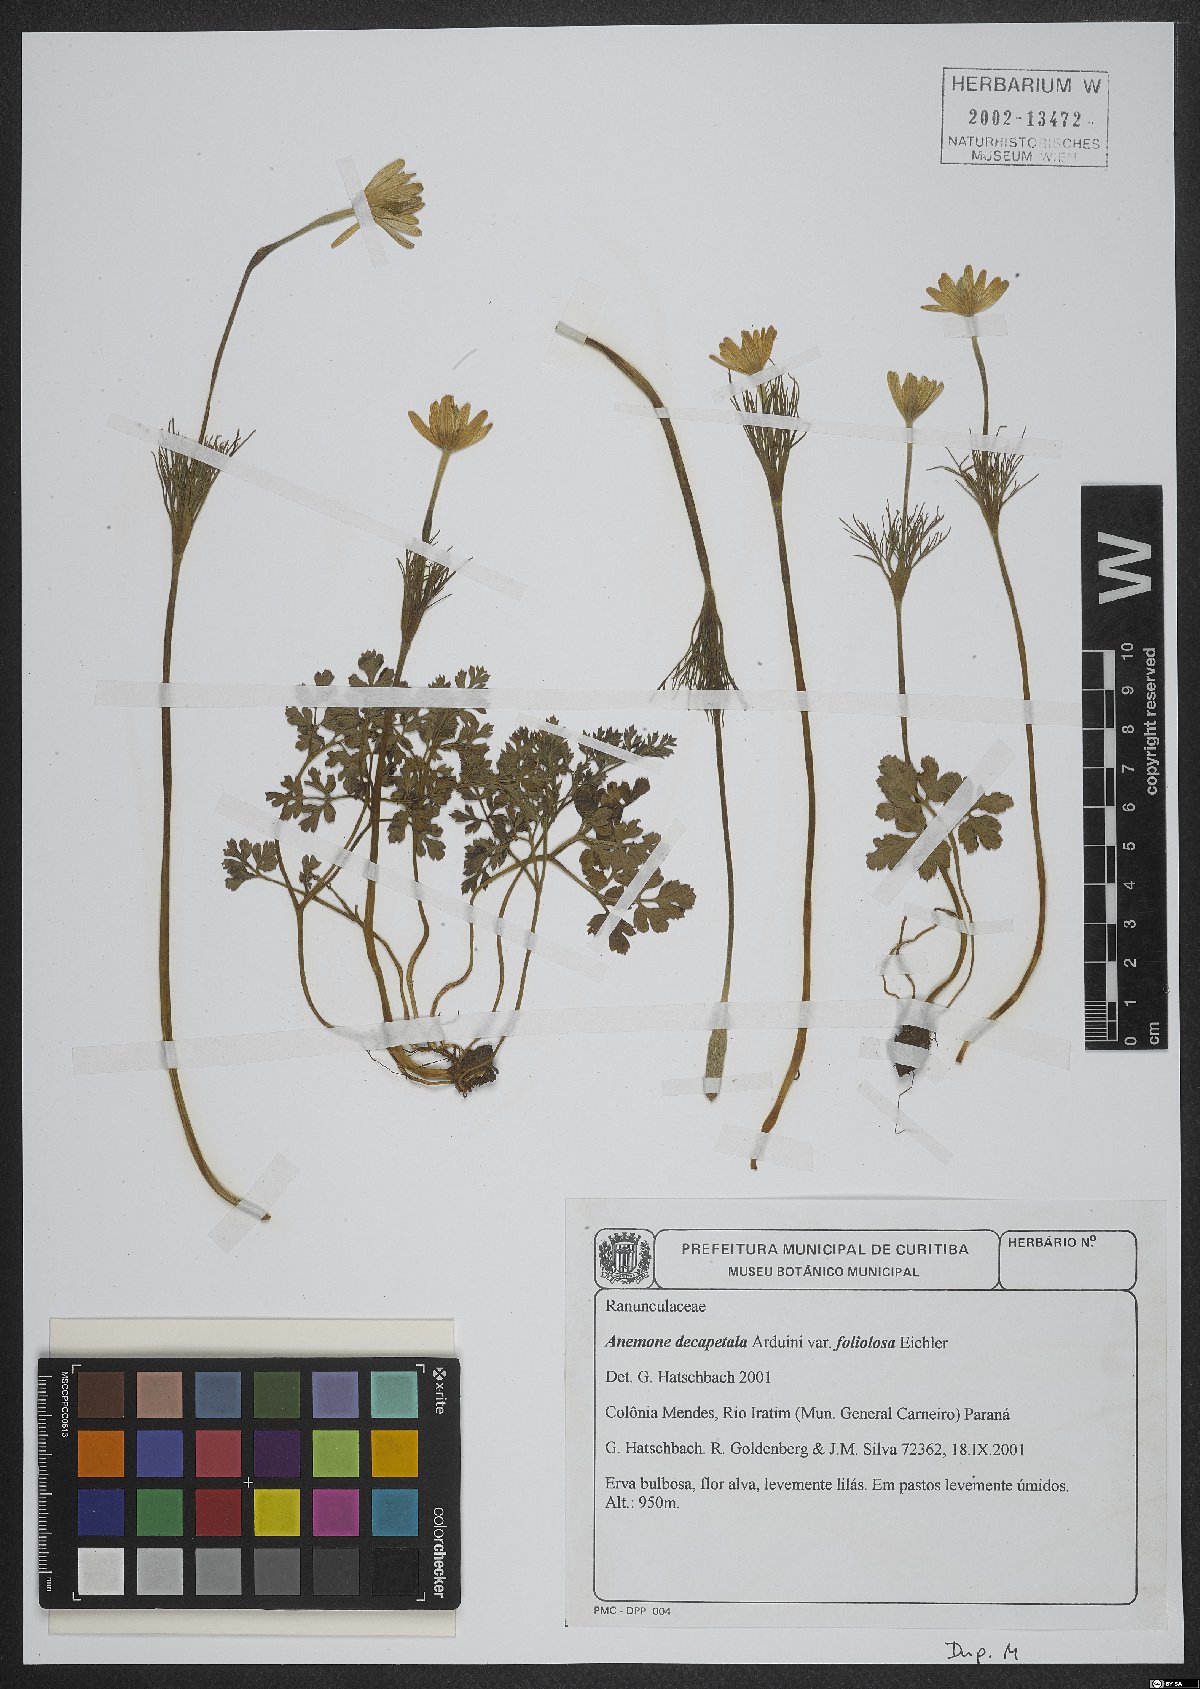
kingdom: Plantae
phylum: Tracheophyta
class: Magnoliopsida
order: Ranunculales
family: Ranunculaceae
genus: Anemone
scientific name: Anemone decapetala
